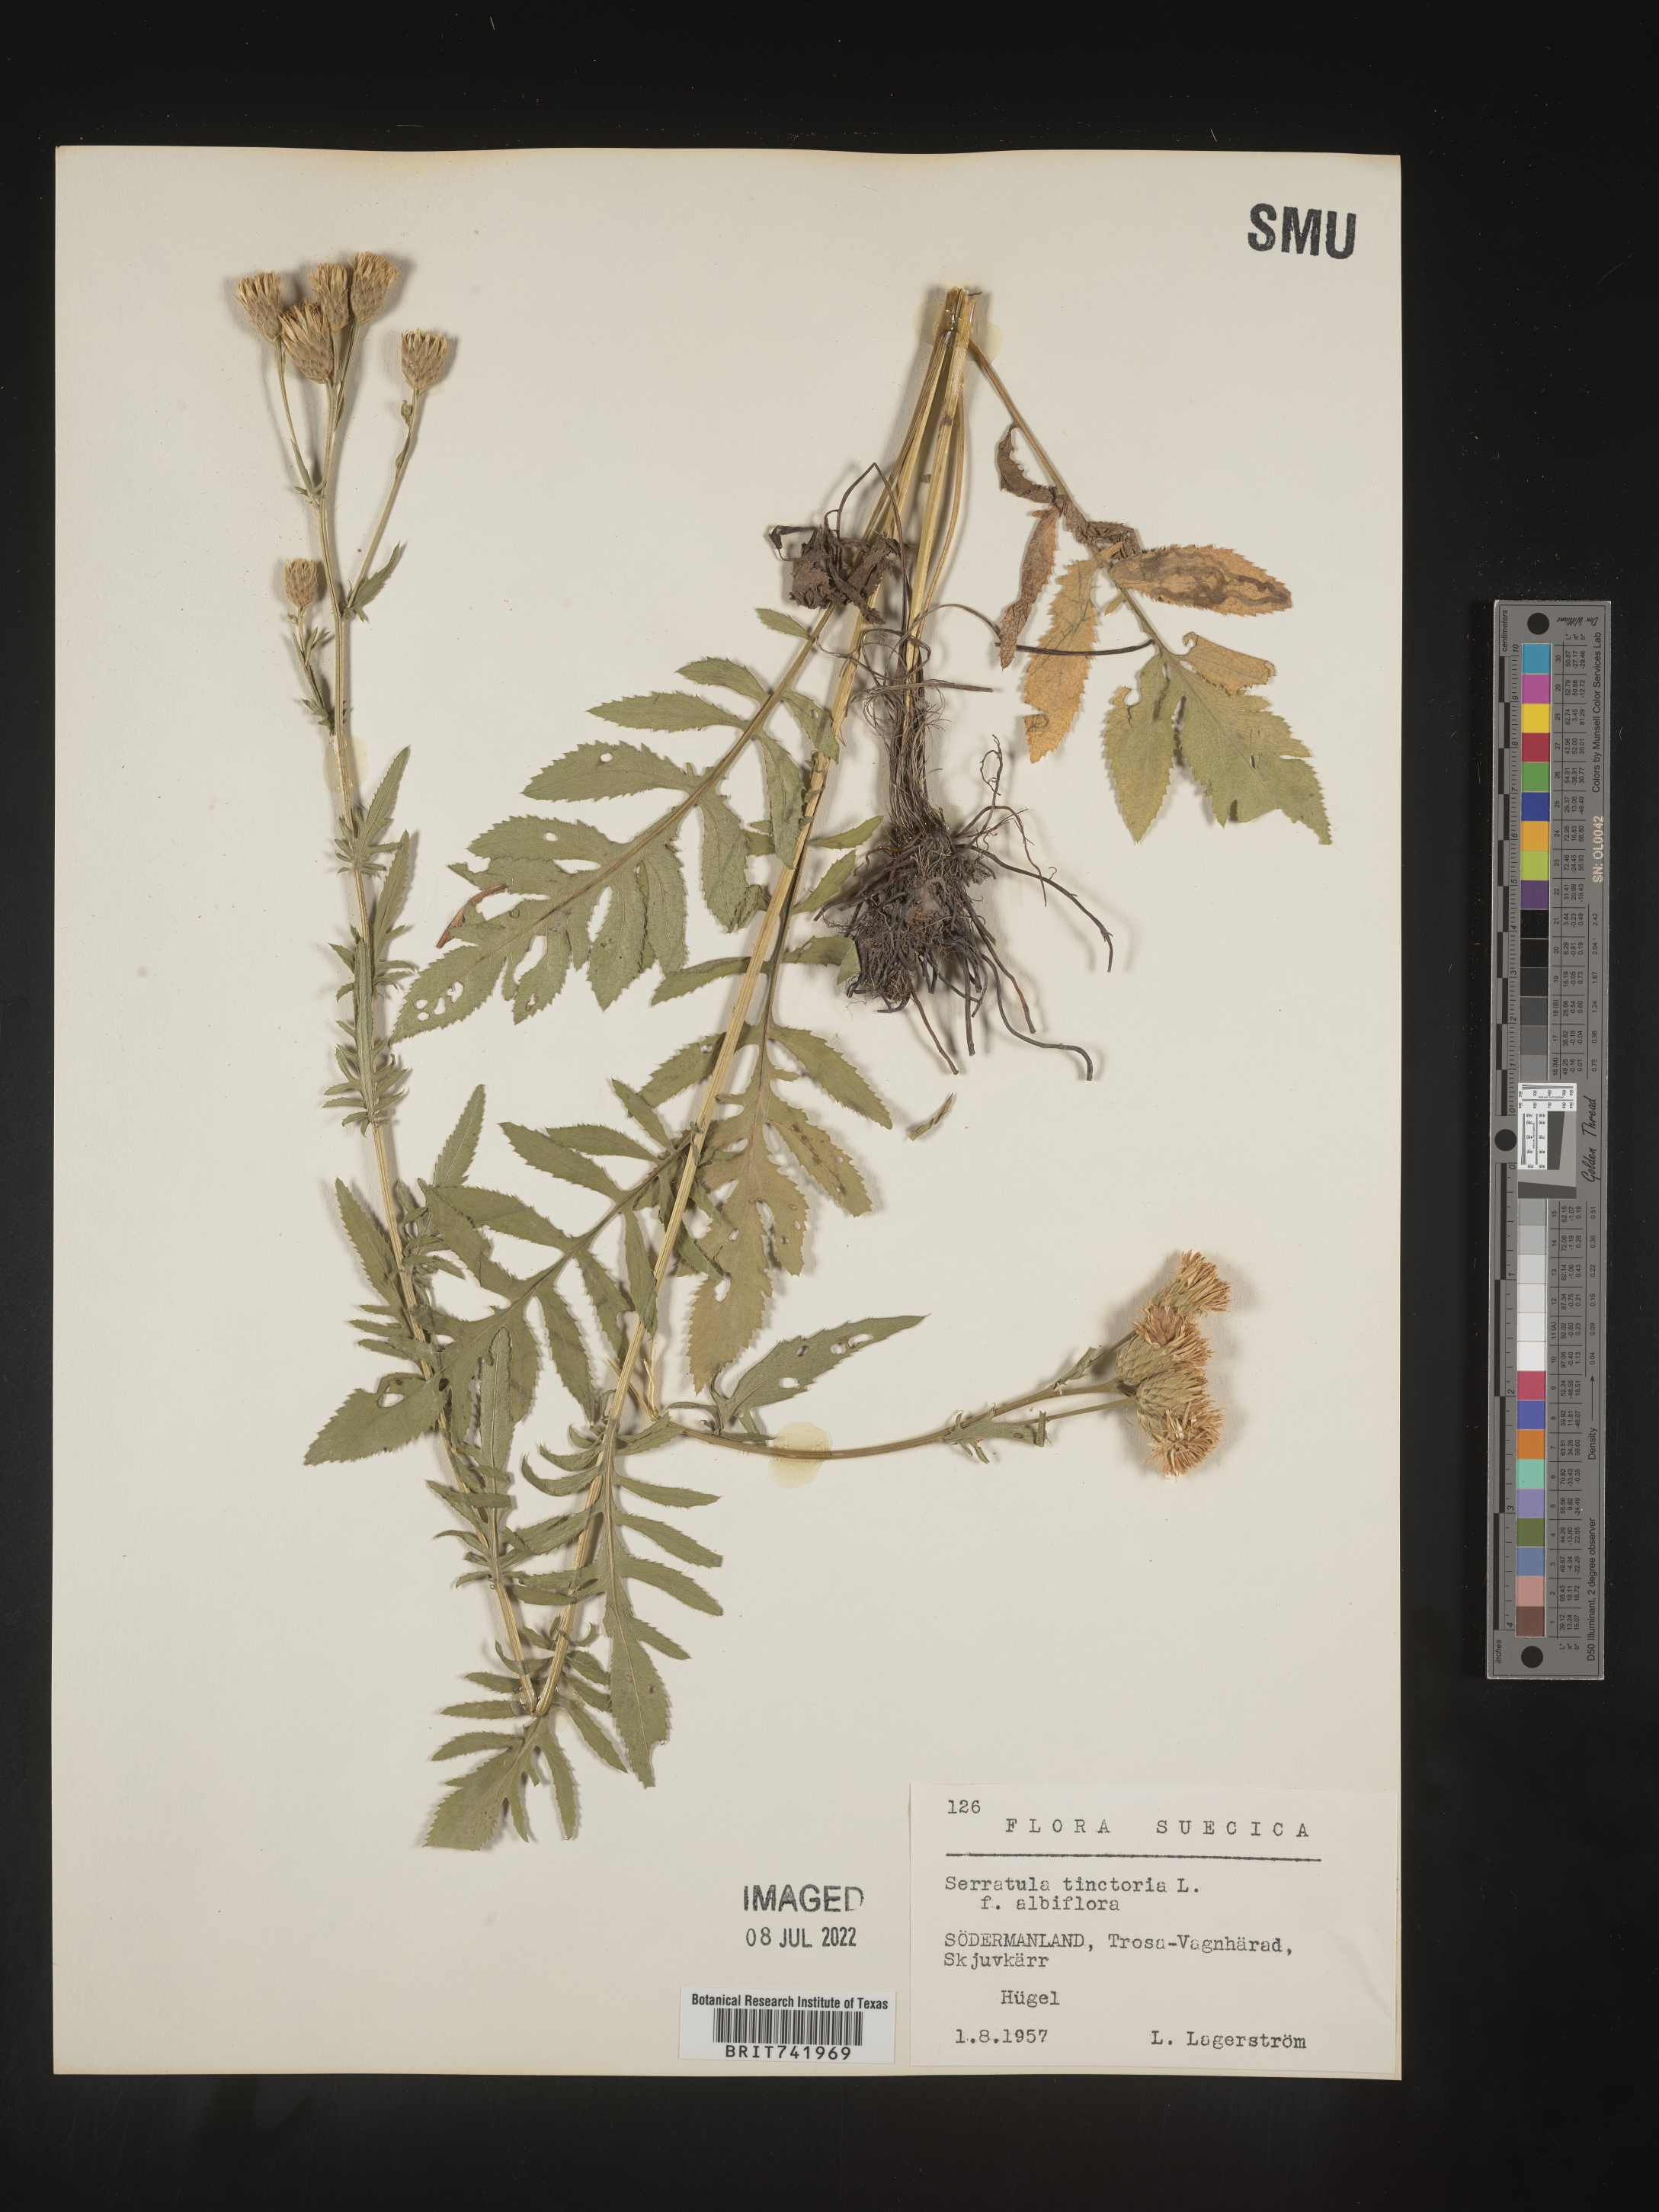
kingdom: Plantae
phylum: Tracheophyta
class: Magnoliopsida
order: Asterales
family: Asteraceae
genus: Serratula
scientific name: Serratula
